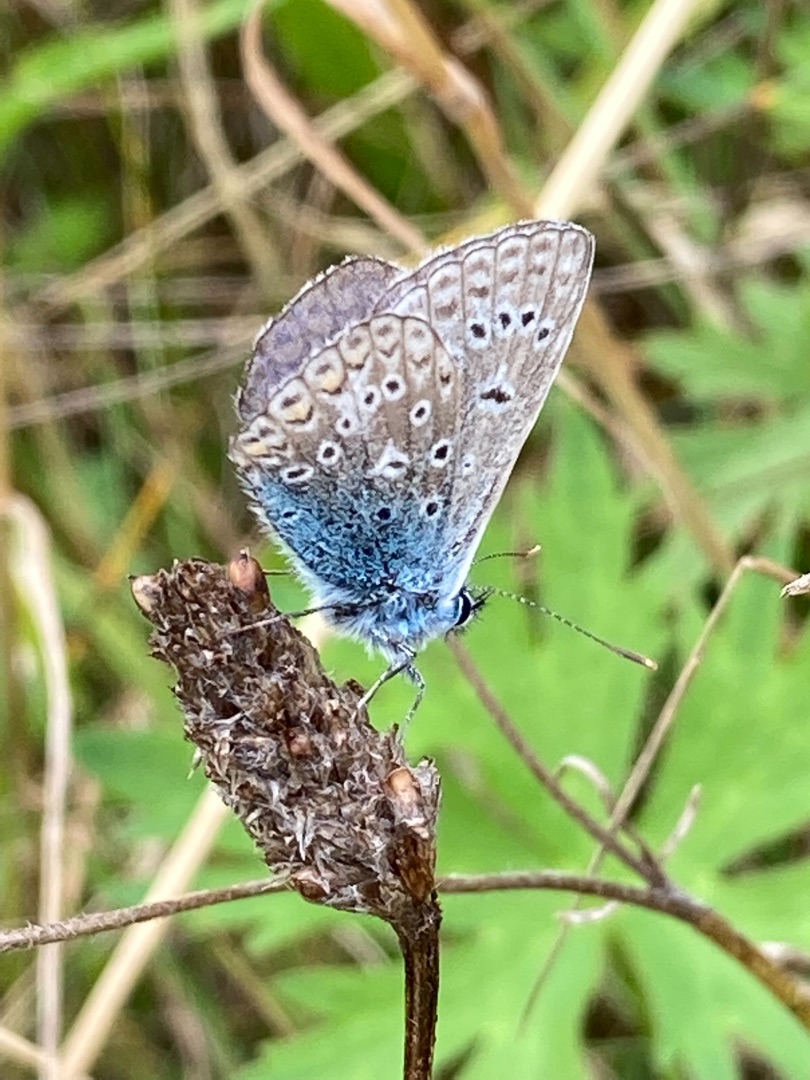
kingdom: Animalia
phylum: Arthropoda
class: Insecta
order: Lepidoptera
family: Lycaenidae
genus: Polyommatus
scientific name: Polyommatus icarus
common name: Almindelig blåfugl
